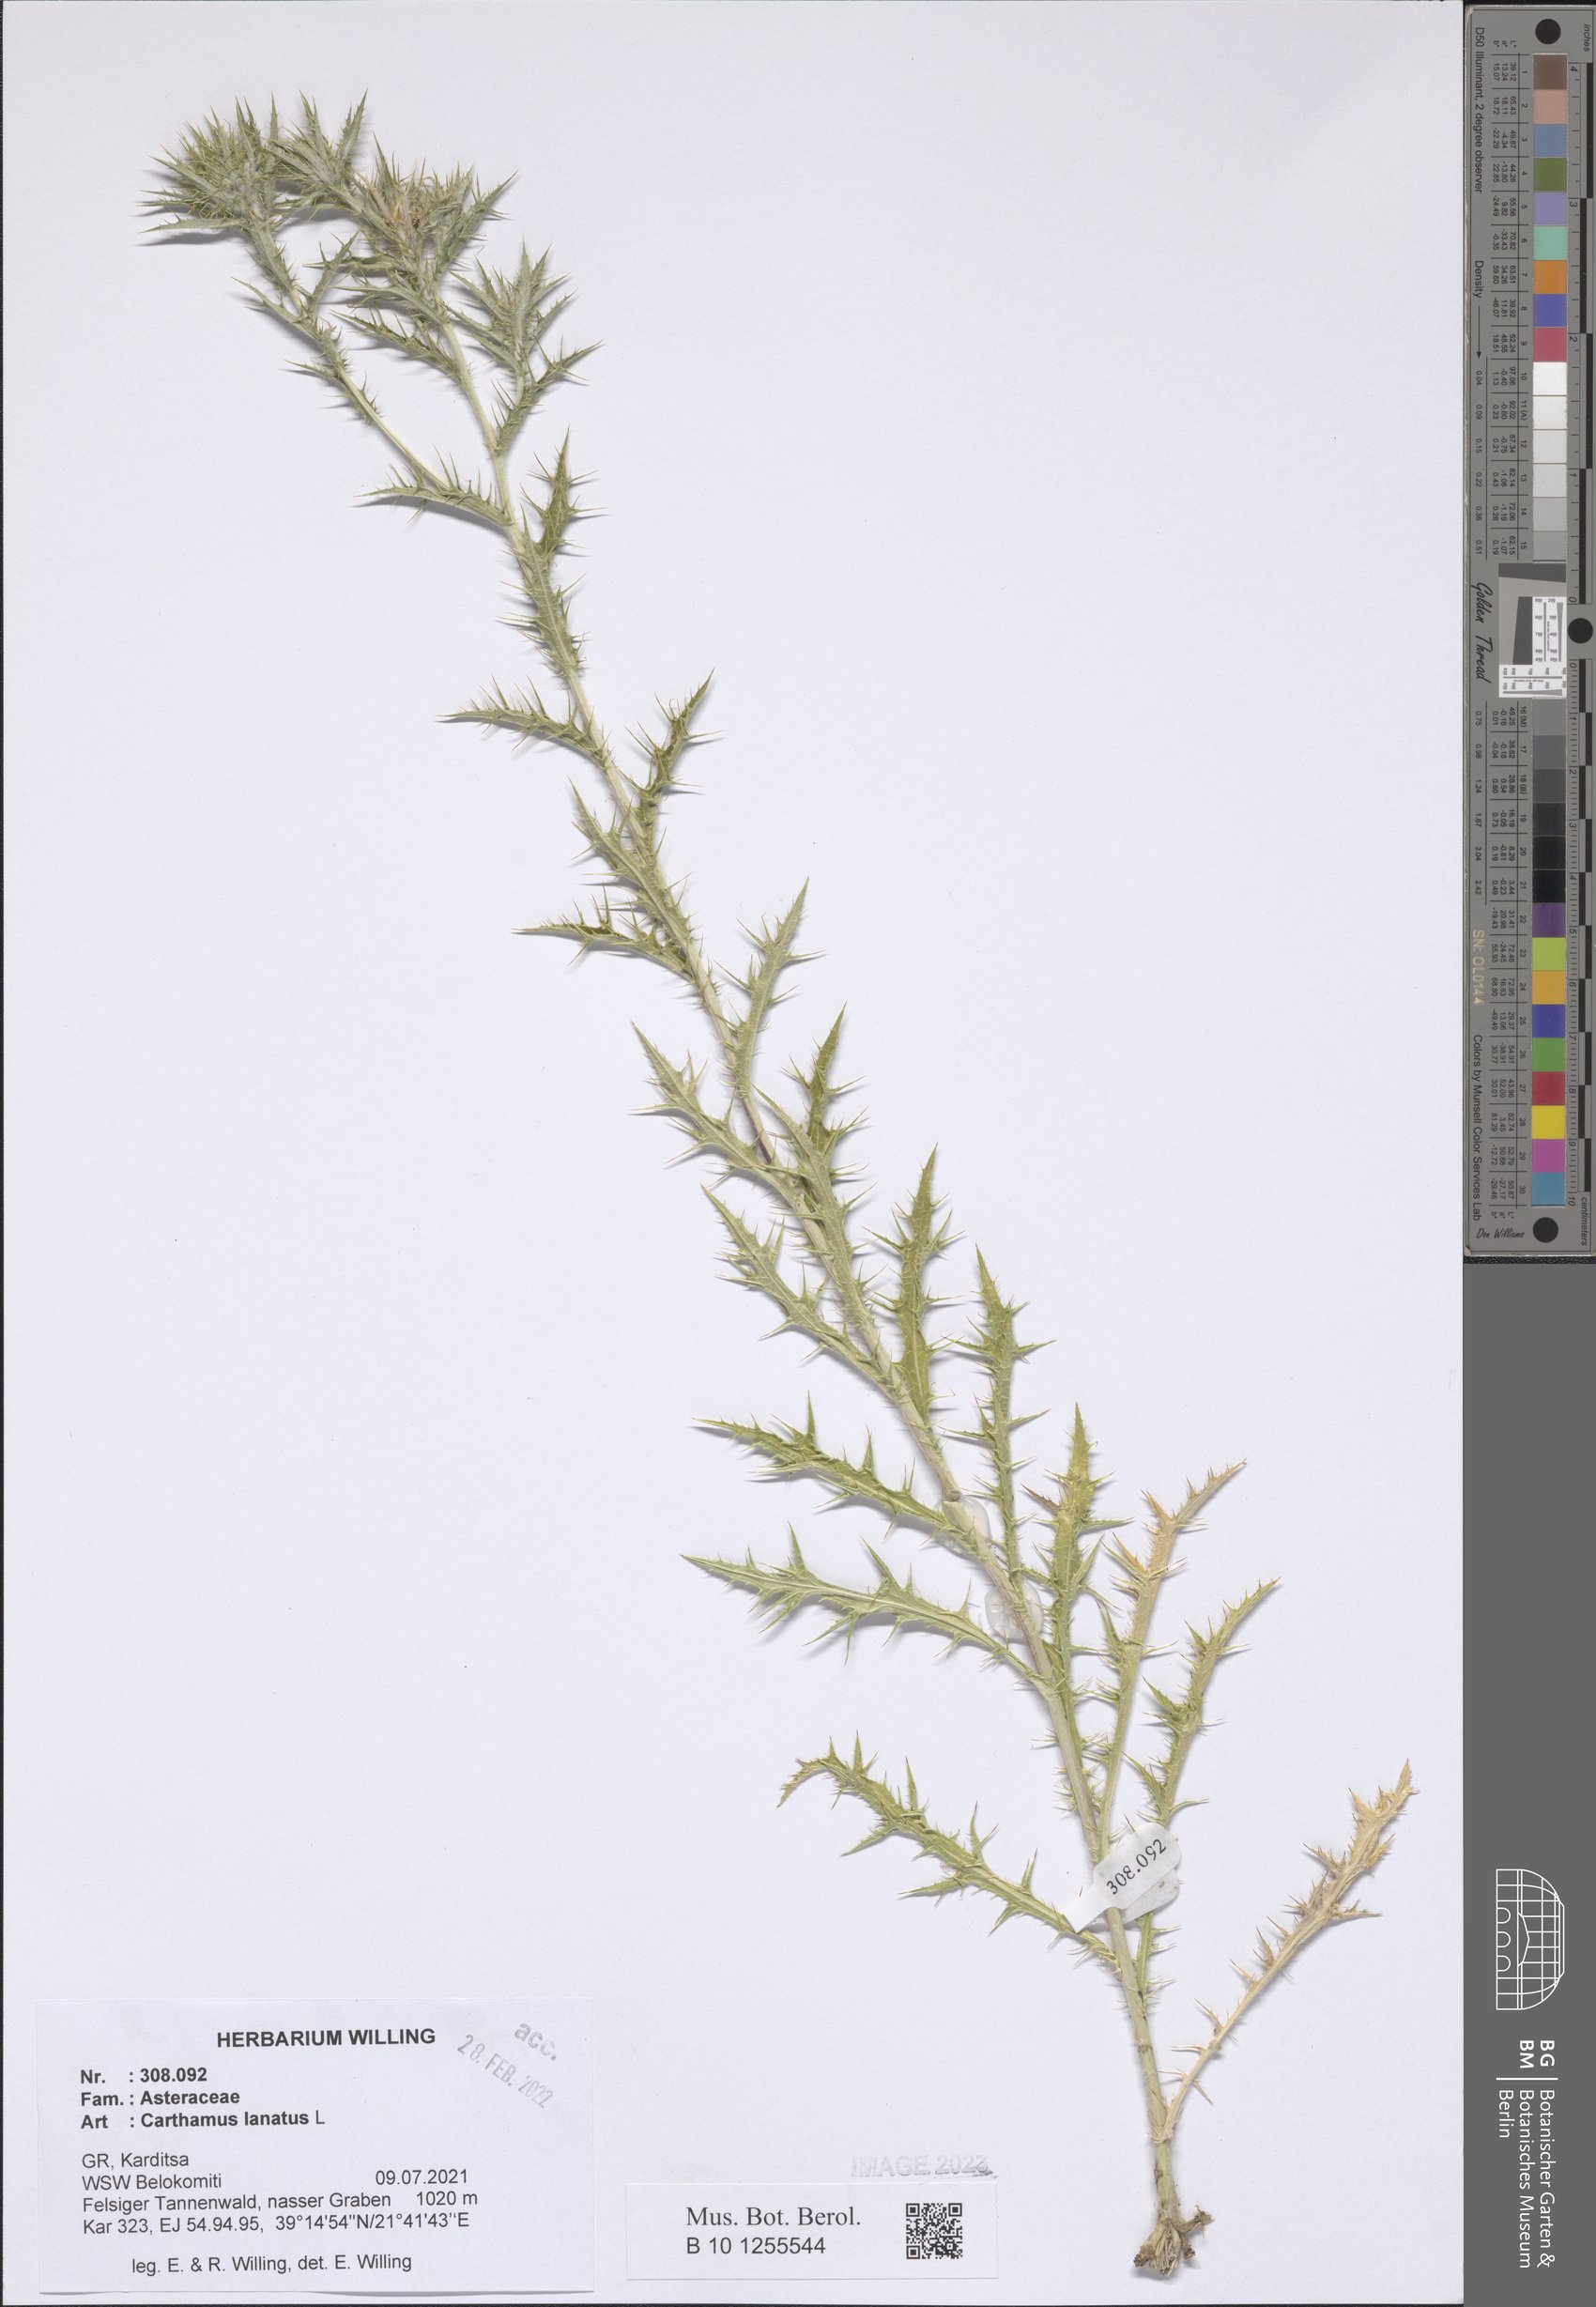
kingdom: Plantae
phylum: Tracheophyta
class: Magnoliopsida
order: Asterales
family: Asteraceae
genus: Carthamus
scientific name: Carthamus lanatus
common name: Downy safflower
